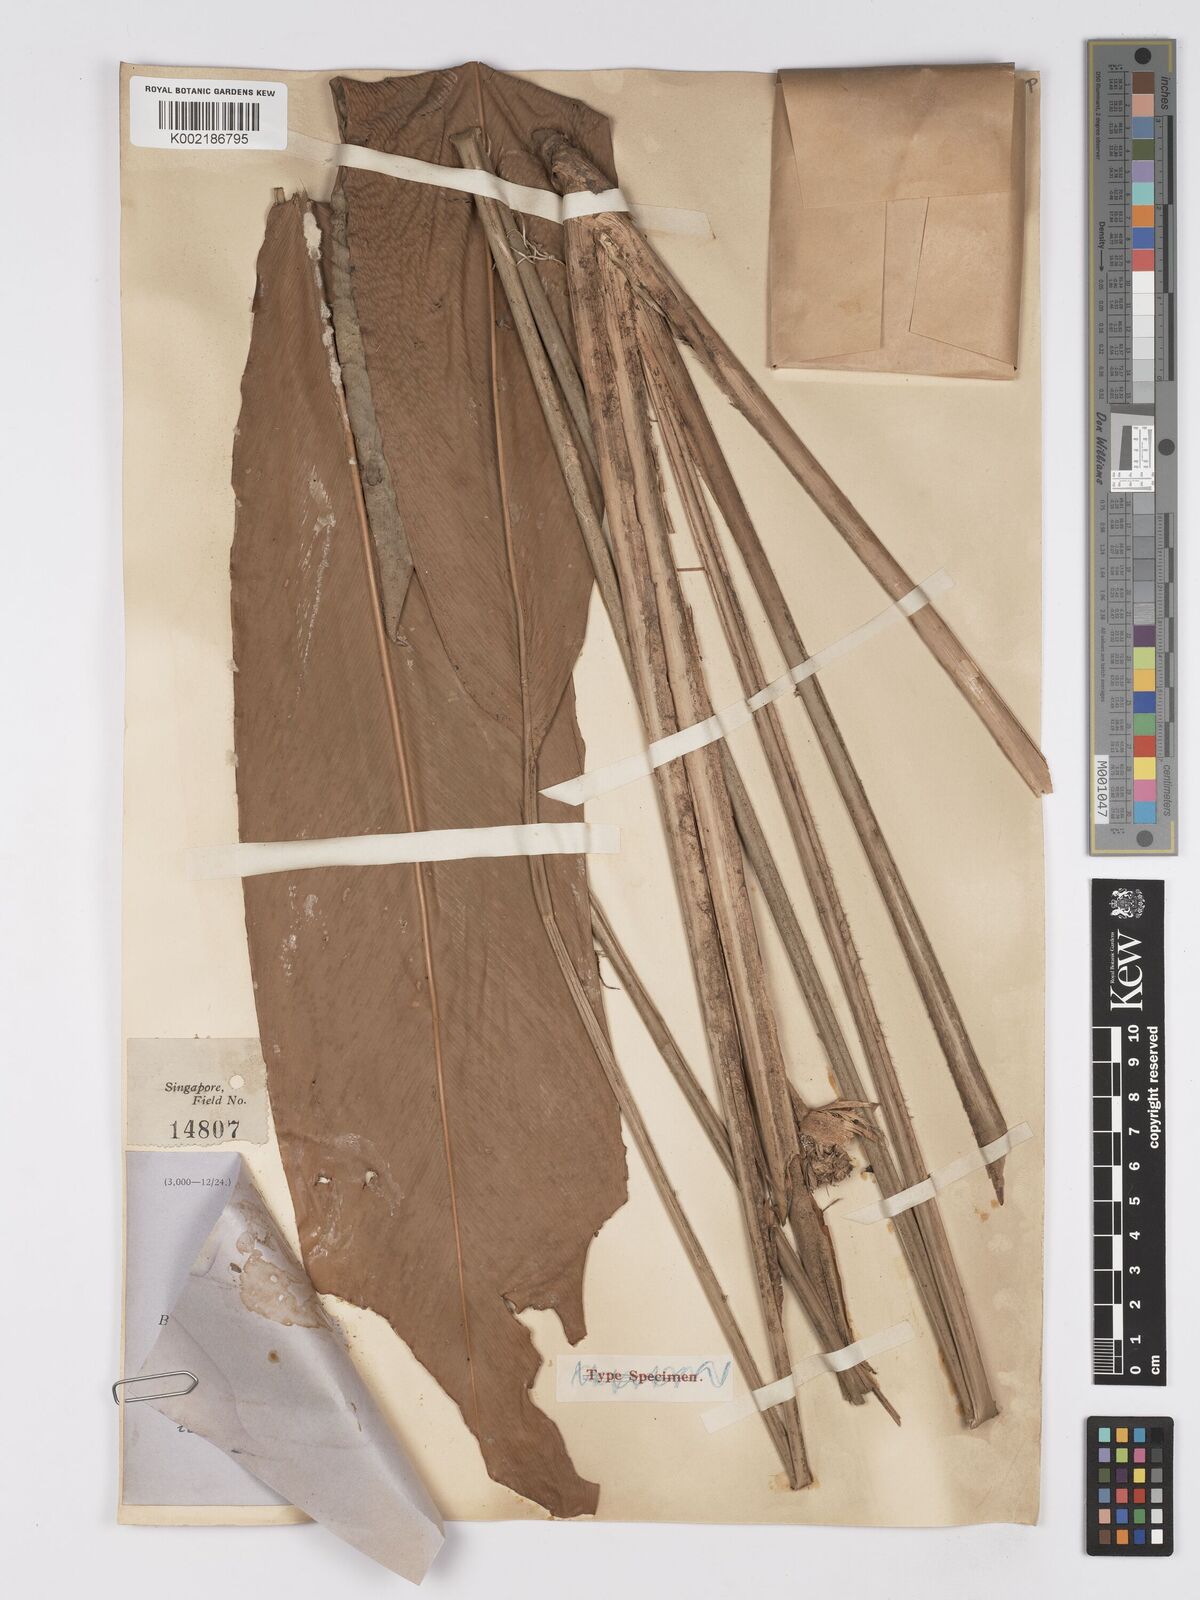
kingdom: Plantae
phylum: Tracheophyta
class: Liliopsida
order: Zingiberales
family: Marantaceae
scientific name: Marantaceae
